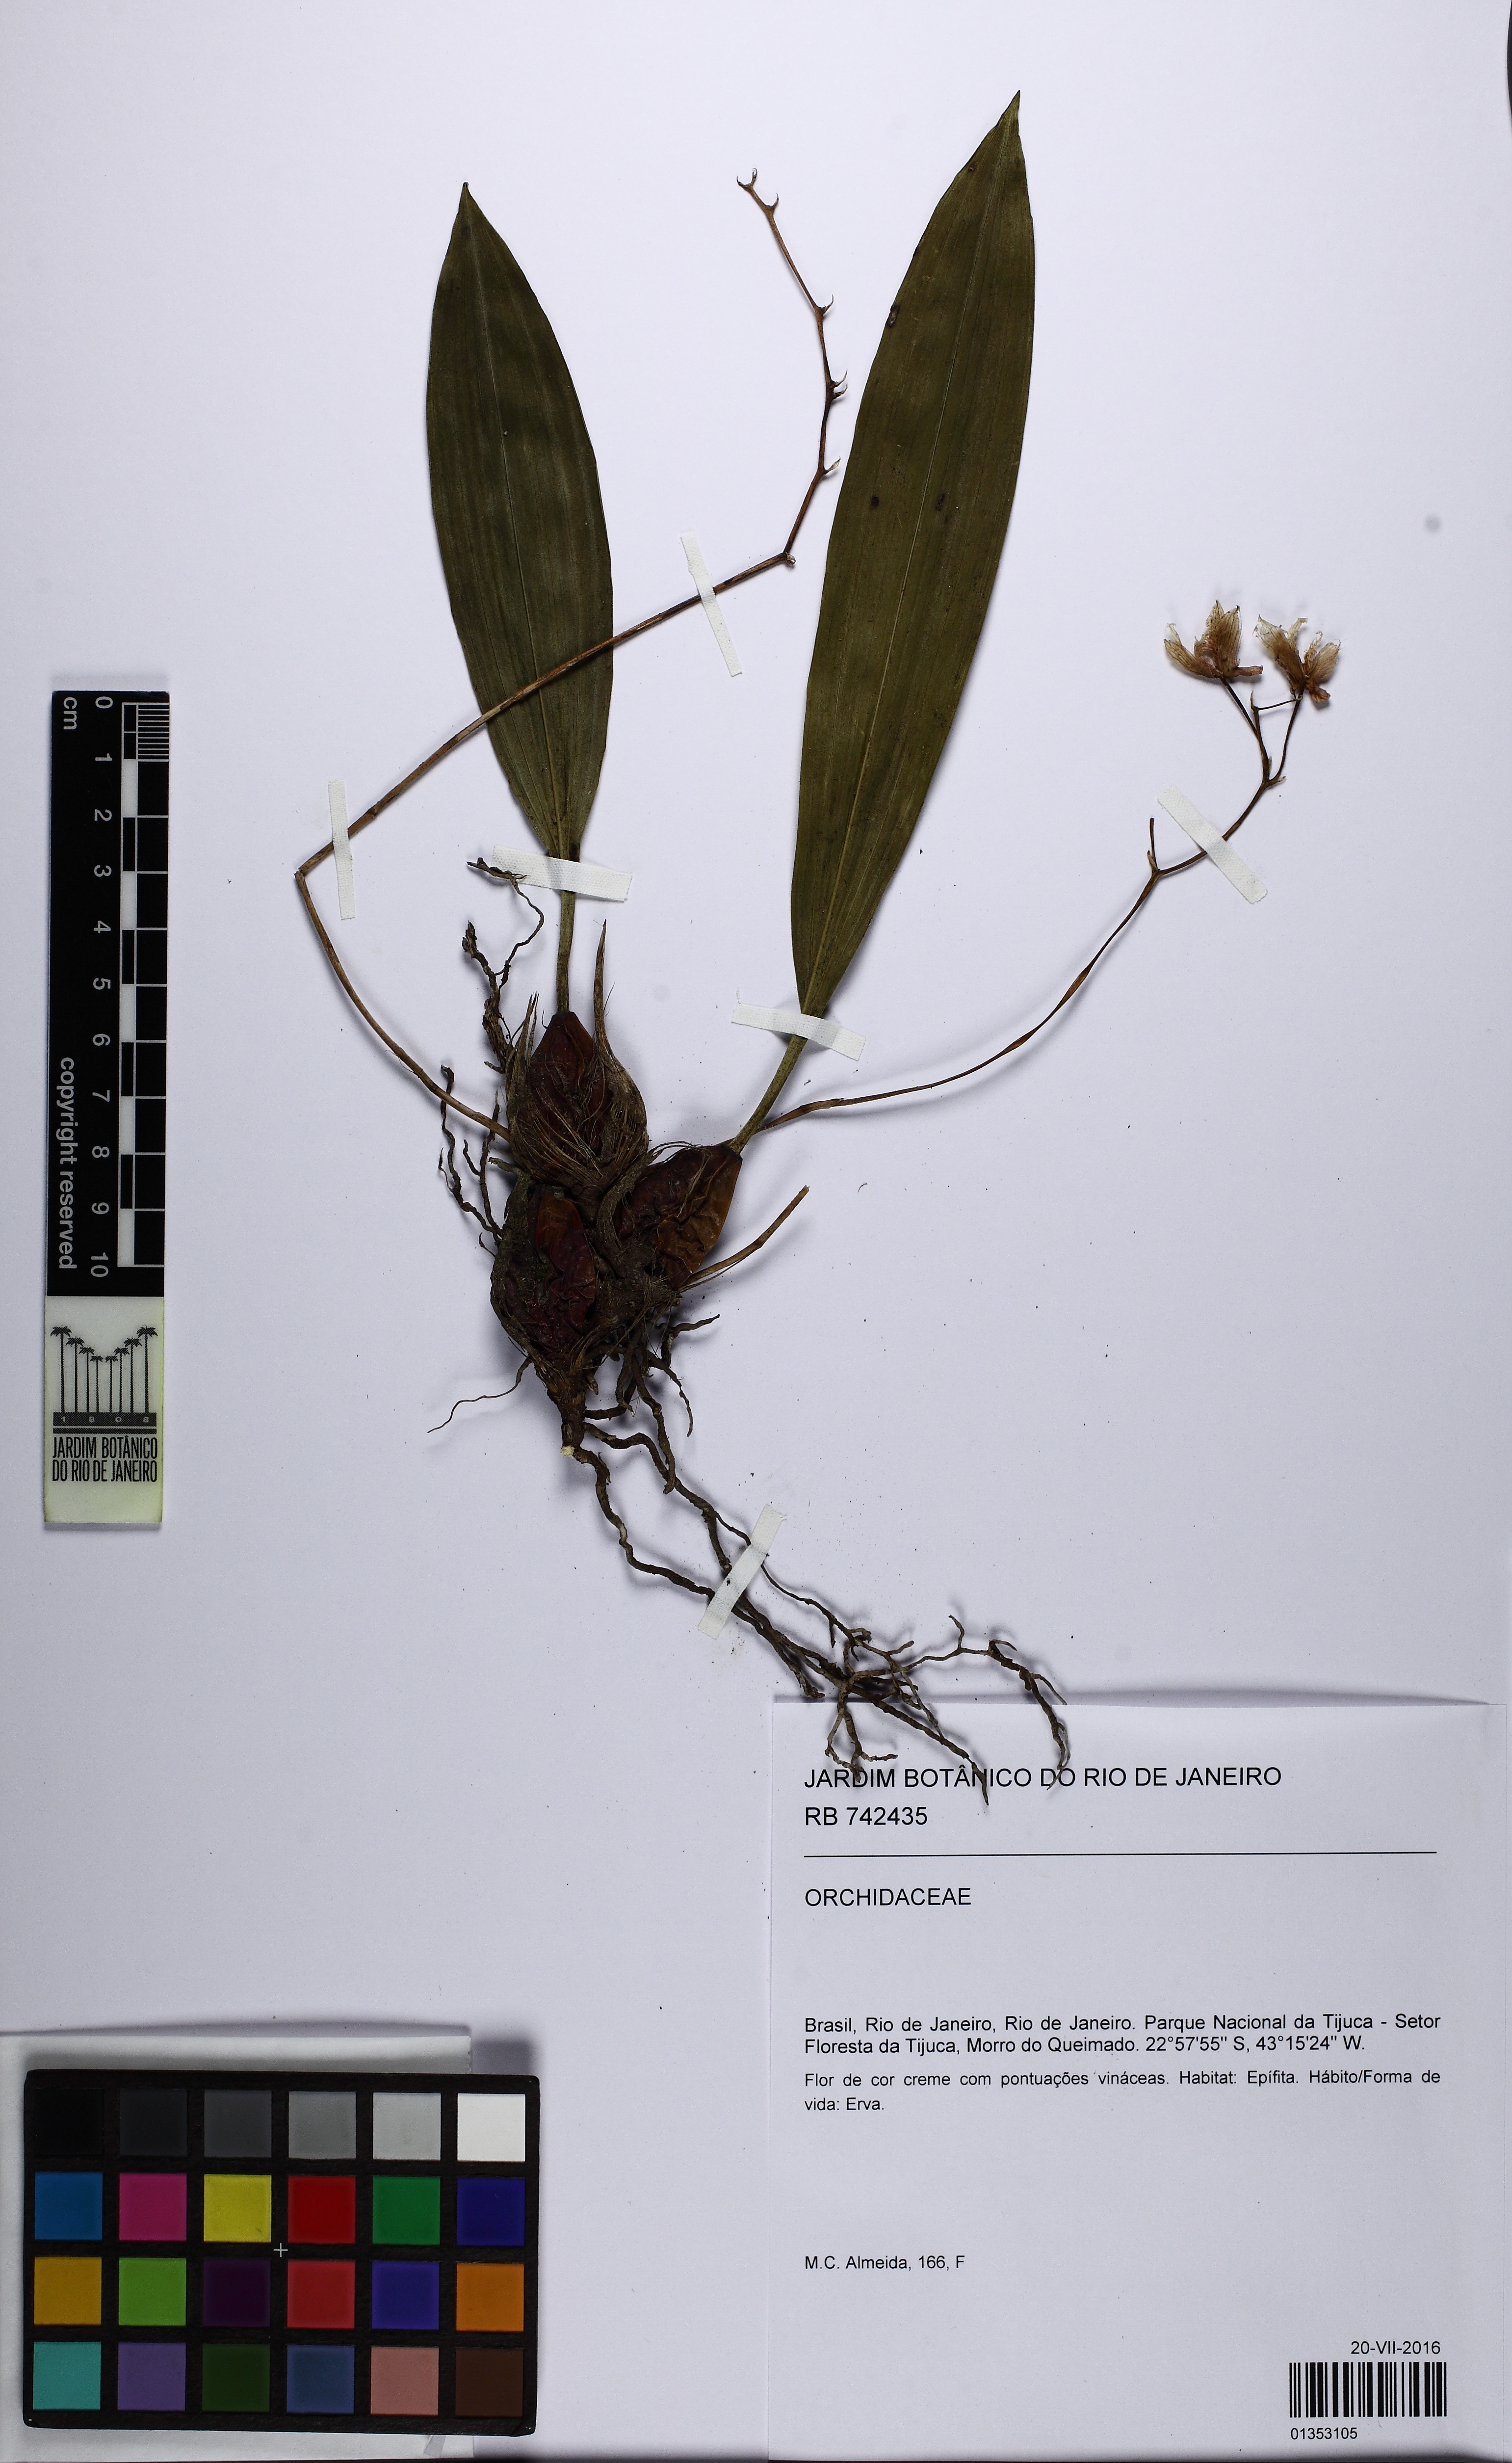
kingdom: Plantae
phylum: Tracheophyta
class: Liliopsida
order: Asparagales
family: Orchidaceae
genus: Bifrenaria
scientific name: Bifrenaria
